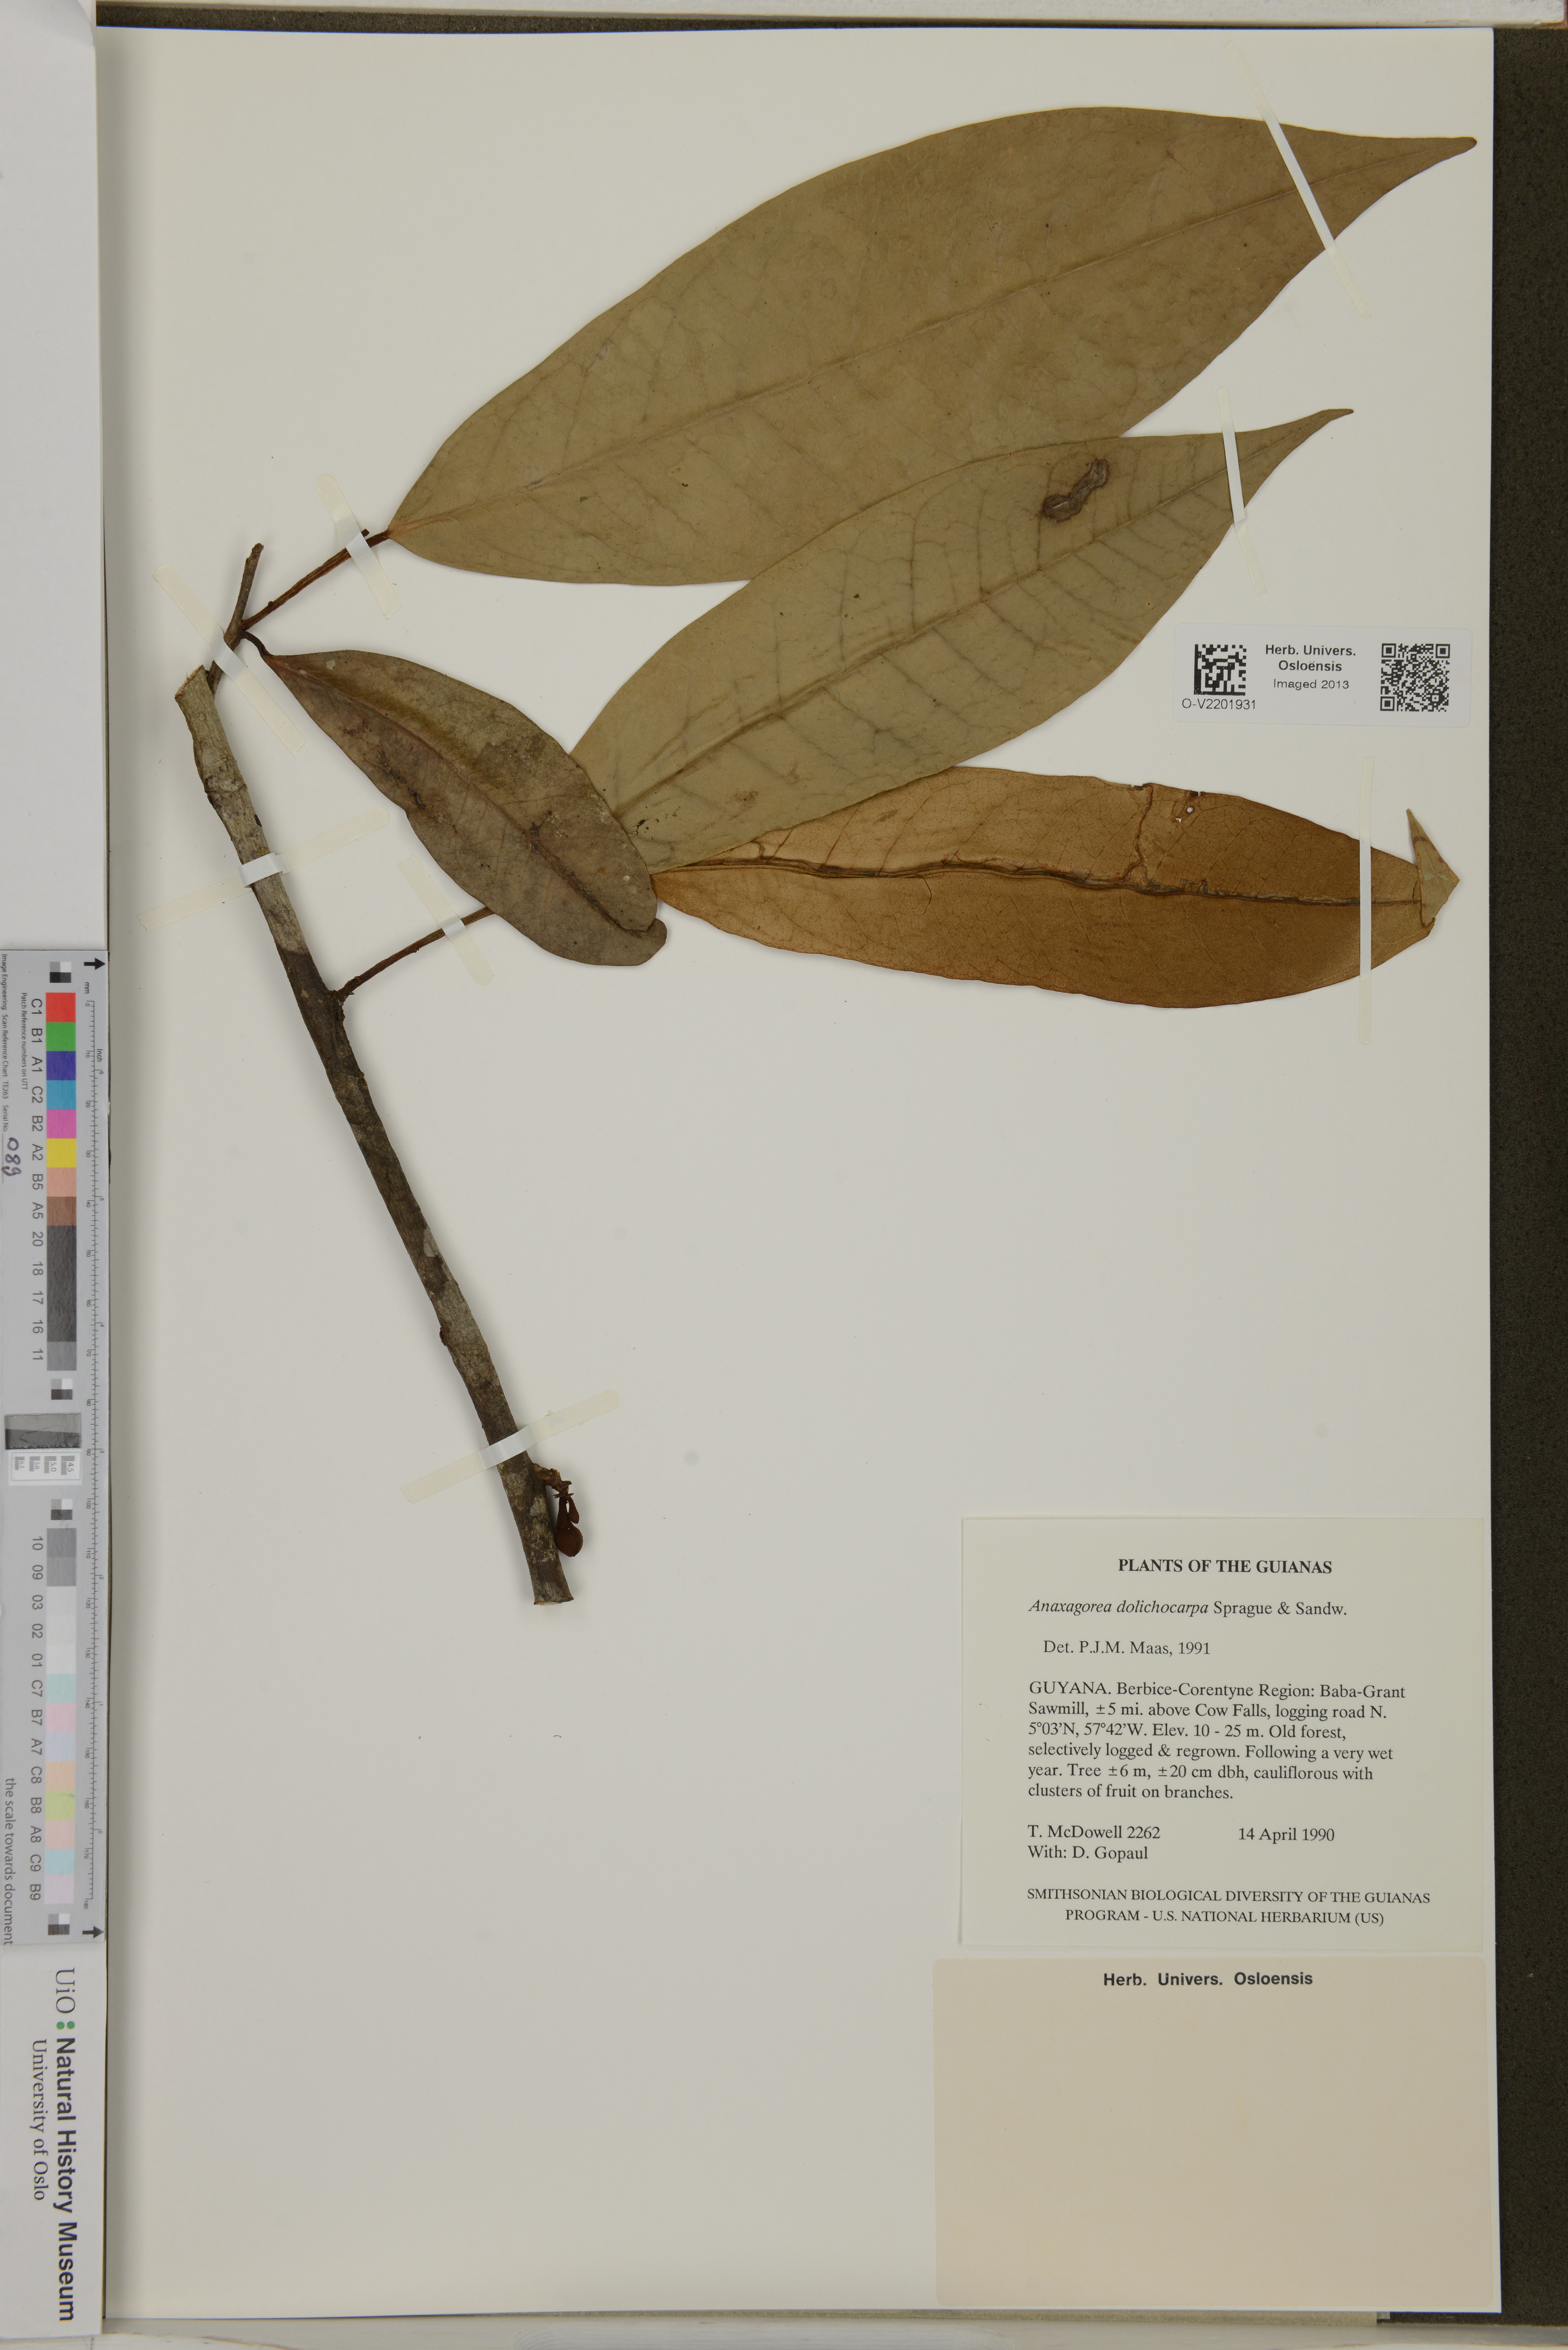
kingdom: Plantae
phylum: Tracheophyta
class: Magnoliopsida
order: Magnoliales
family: Annonaceae
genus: Anaxagorea
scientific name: Anaxagorea dolichocarpa
